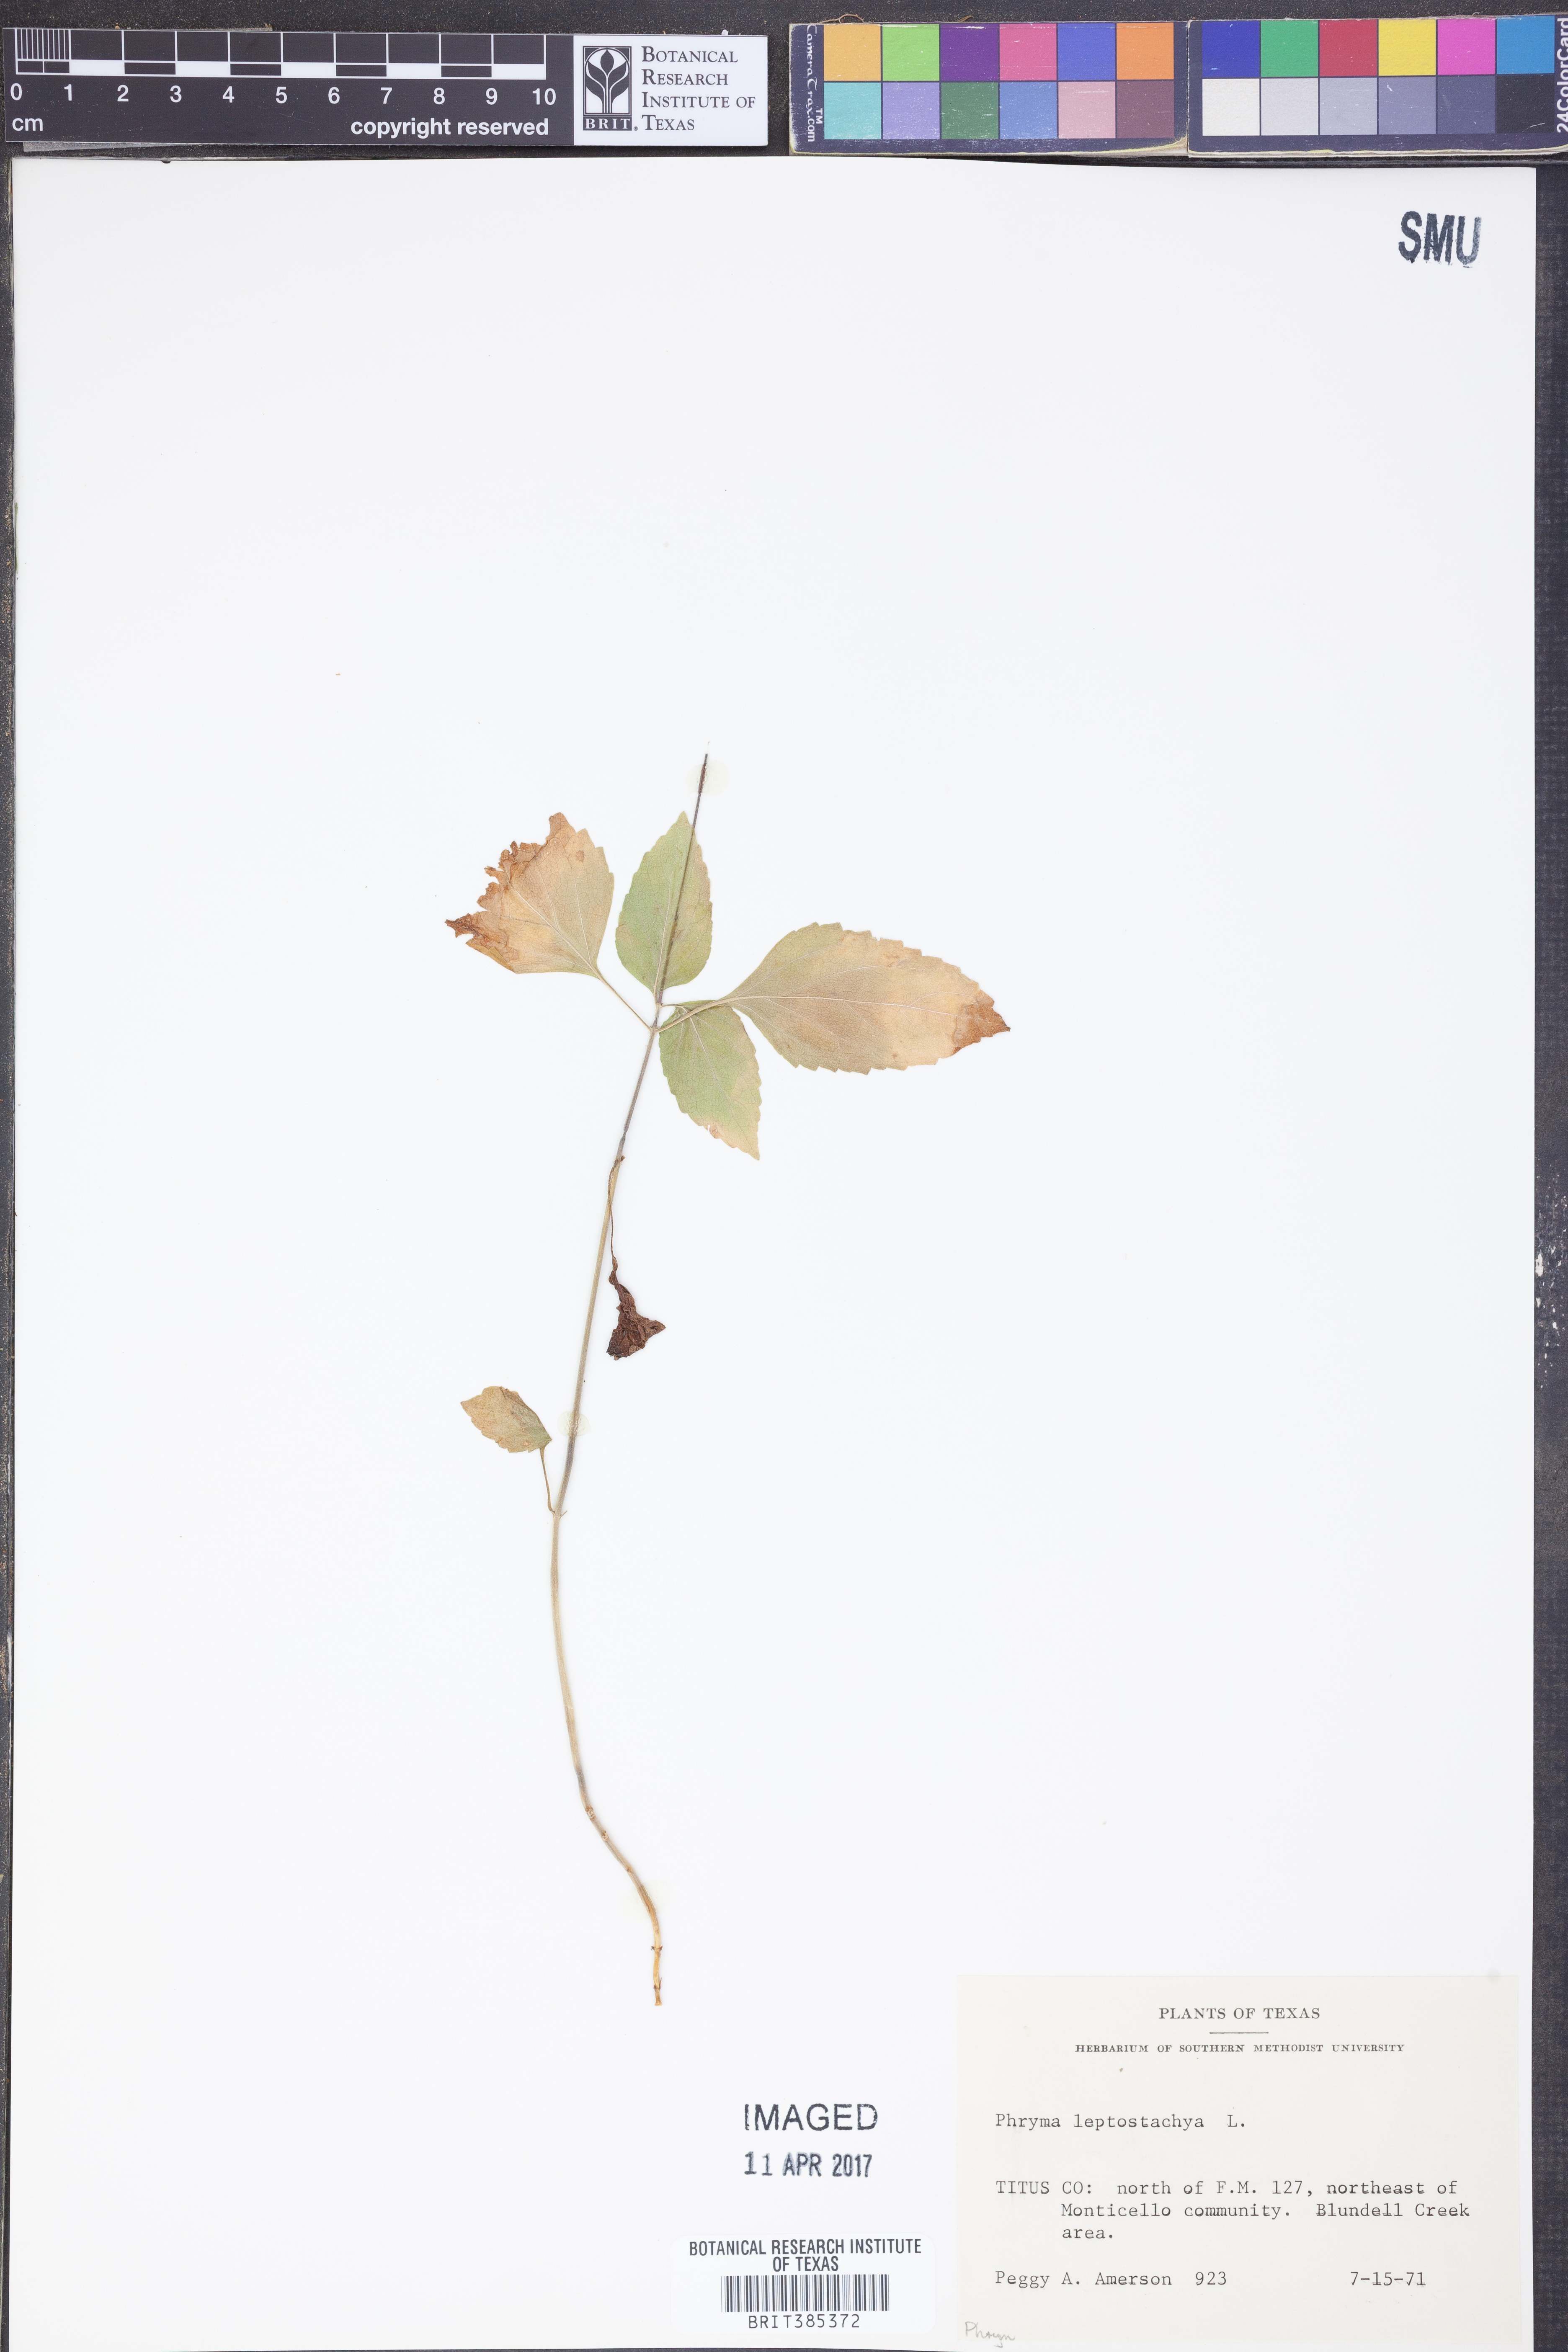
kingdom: Plantae
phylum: Tracheophyta
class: Magnoliopsida
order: Lamiales
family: Phrymaceae
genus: Phryma
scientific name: Phryma leptostachya
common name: American lopseed
